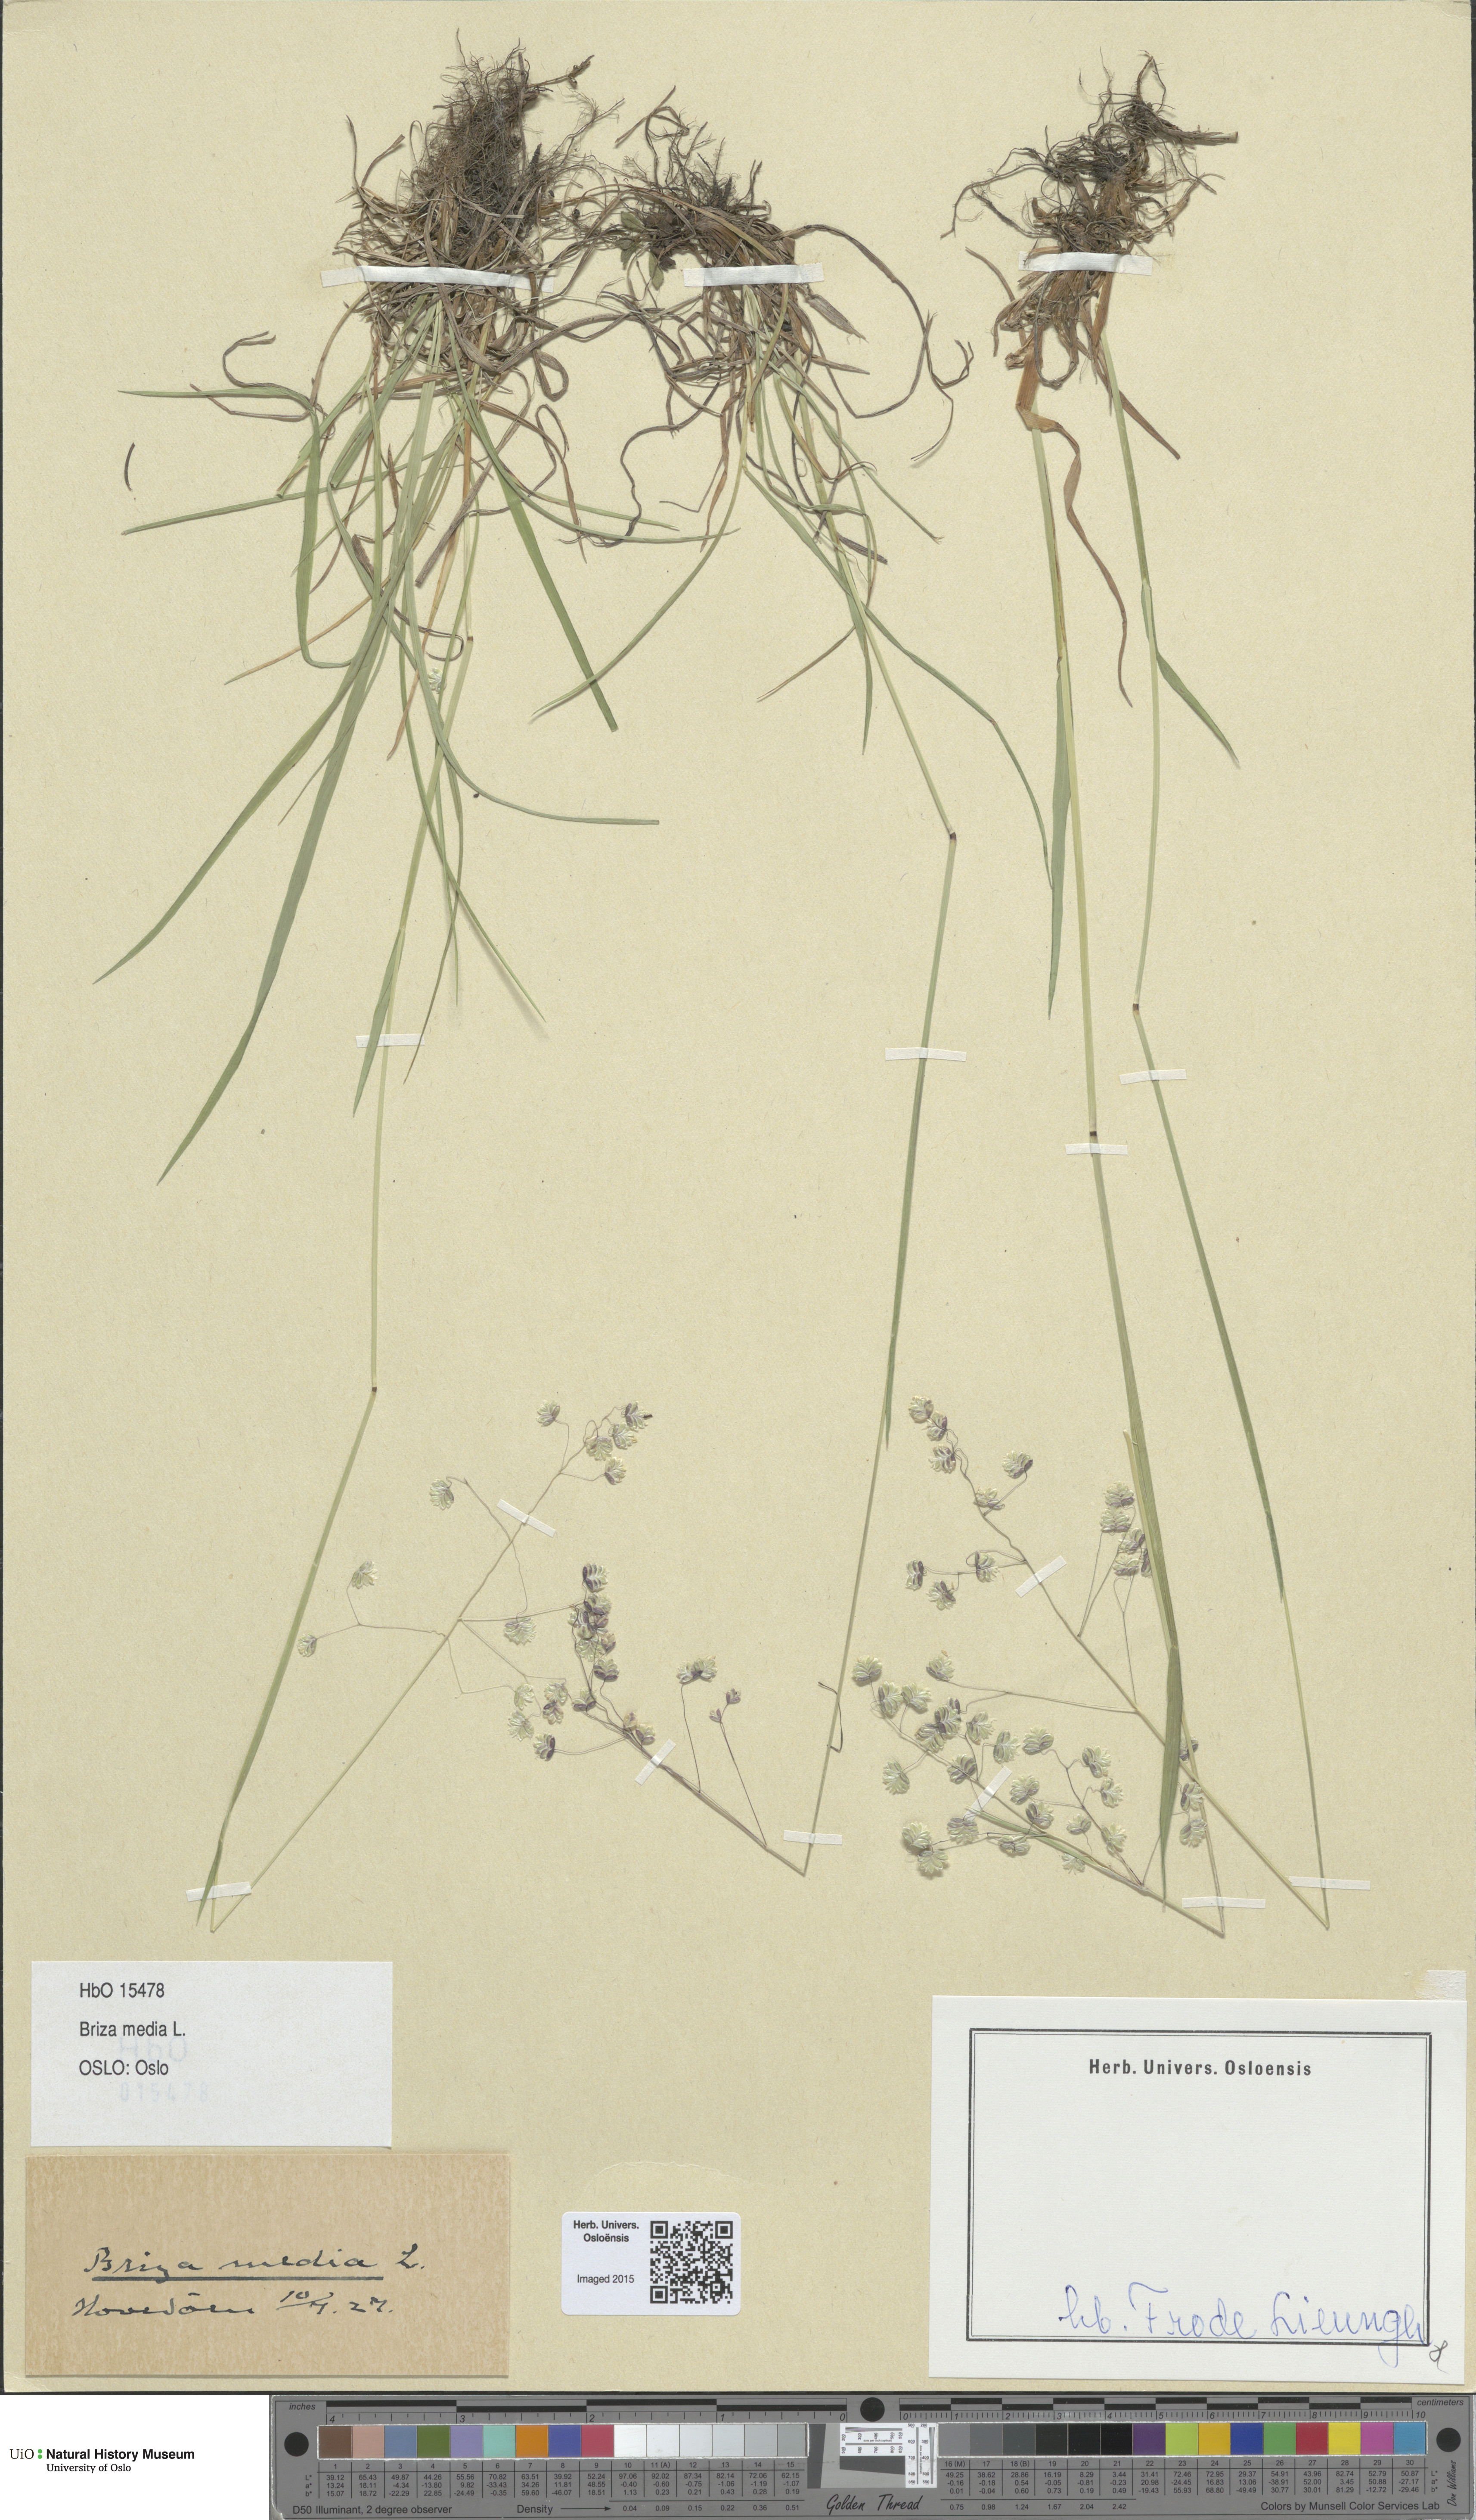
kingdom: Plantae
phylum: Tracheophyta
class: Liliopsida
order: Poales
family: Poaceae
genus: Briza
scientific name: Briza media
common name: Quaking grass
